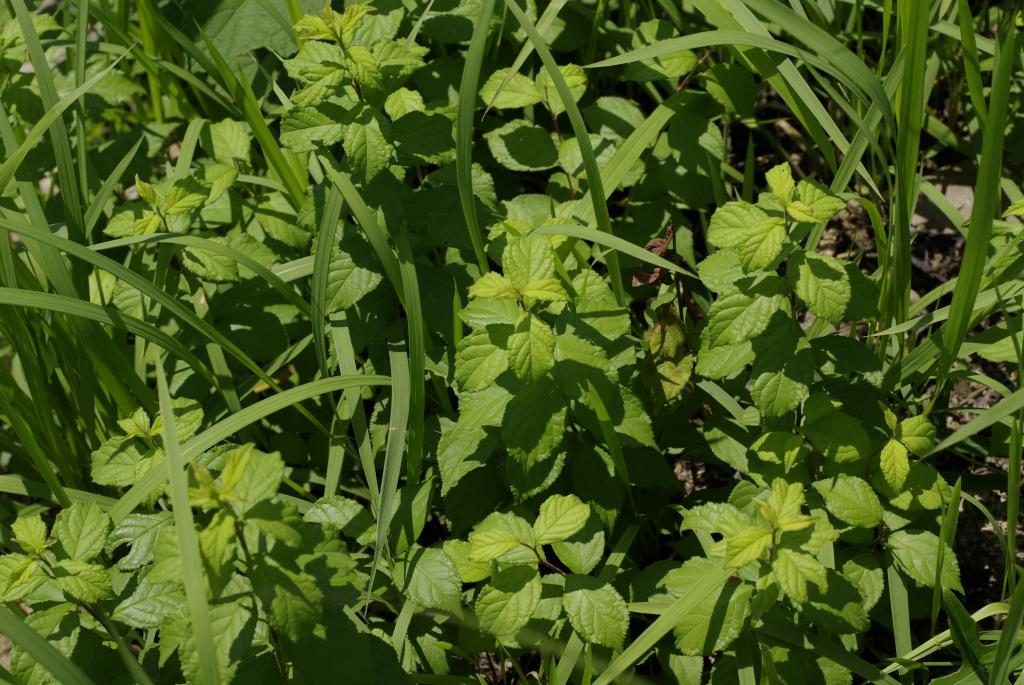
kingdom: Plantae
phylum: Tracheophyta
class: Magnoliopsida
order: Rosales
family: Rosaceae
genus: Prunus
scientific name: Prunus japonica
